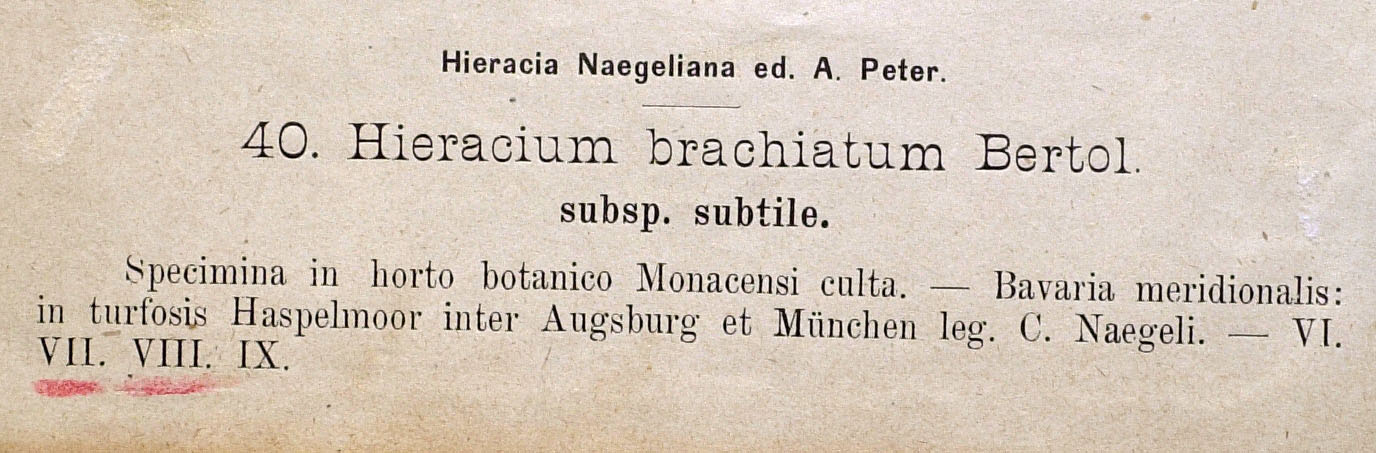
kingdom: Plantae
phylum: Tracheophyta
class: Magnoliopsida
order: Asterales
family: Asteraceae
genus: Pilosella
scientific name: Pilosella acutifolia
